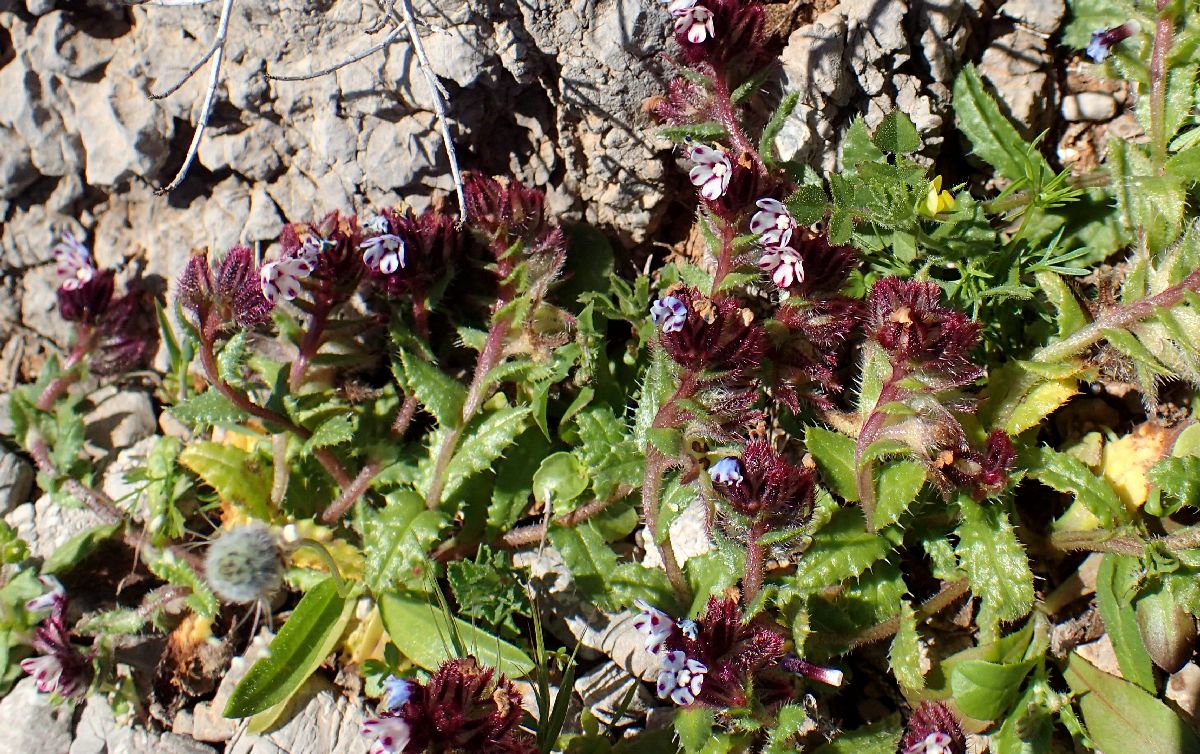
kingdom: Plantae
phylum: Tracheophyta
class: Magnoliopsida
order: Boraginales
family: Boraginaceae
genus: Anchusella
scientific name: Anchusella variegata
